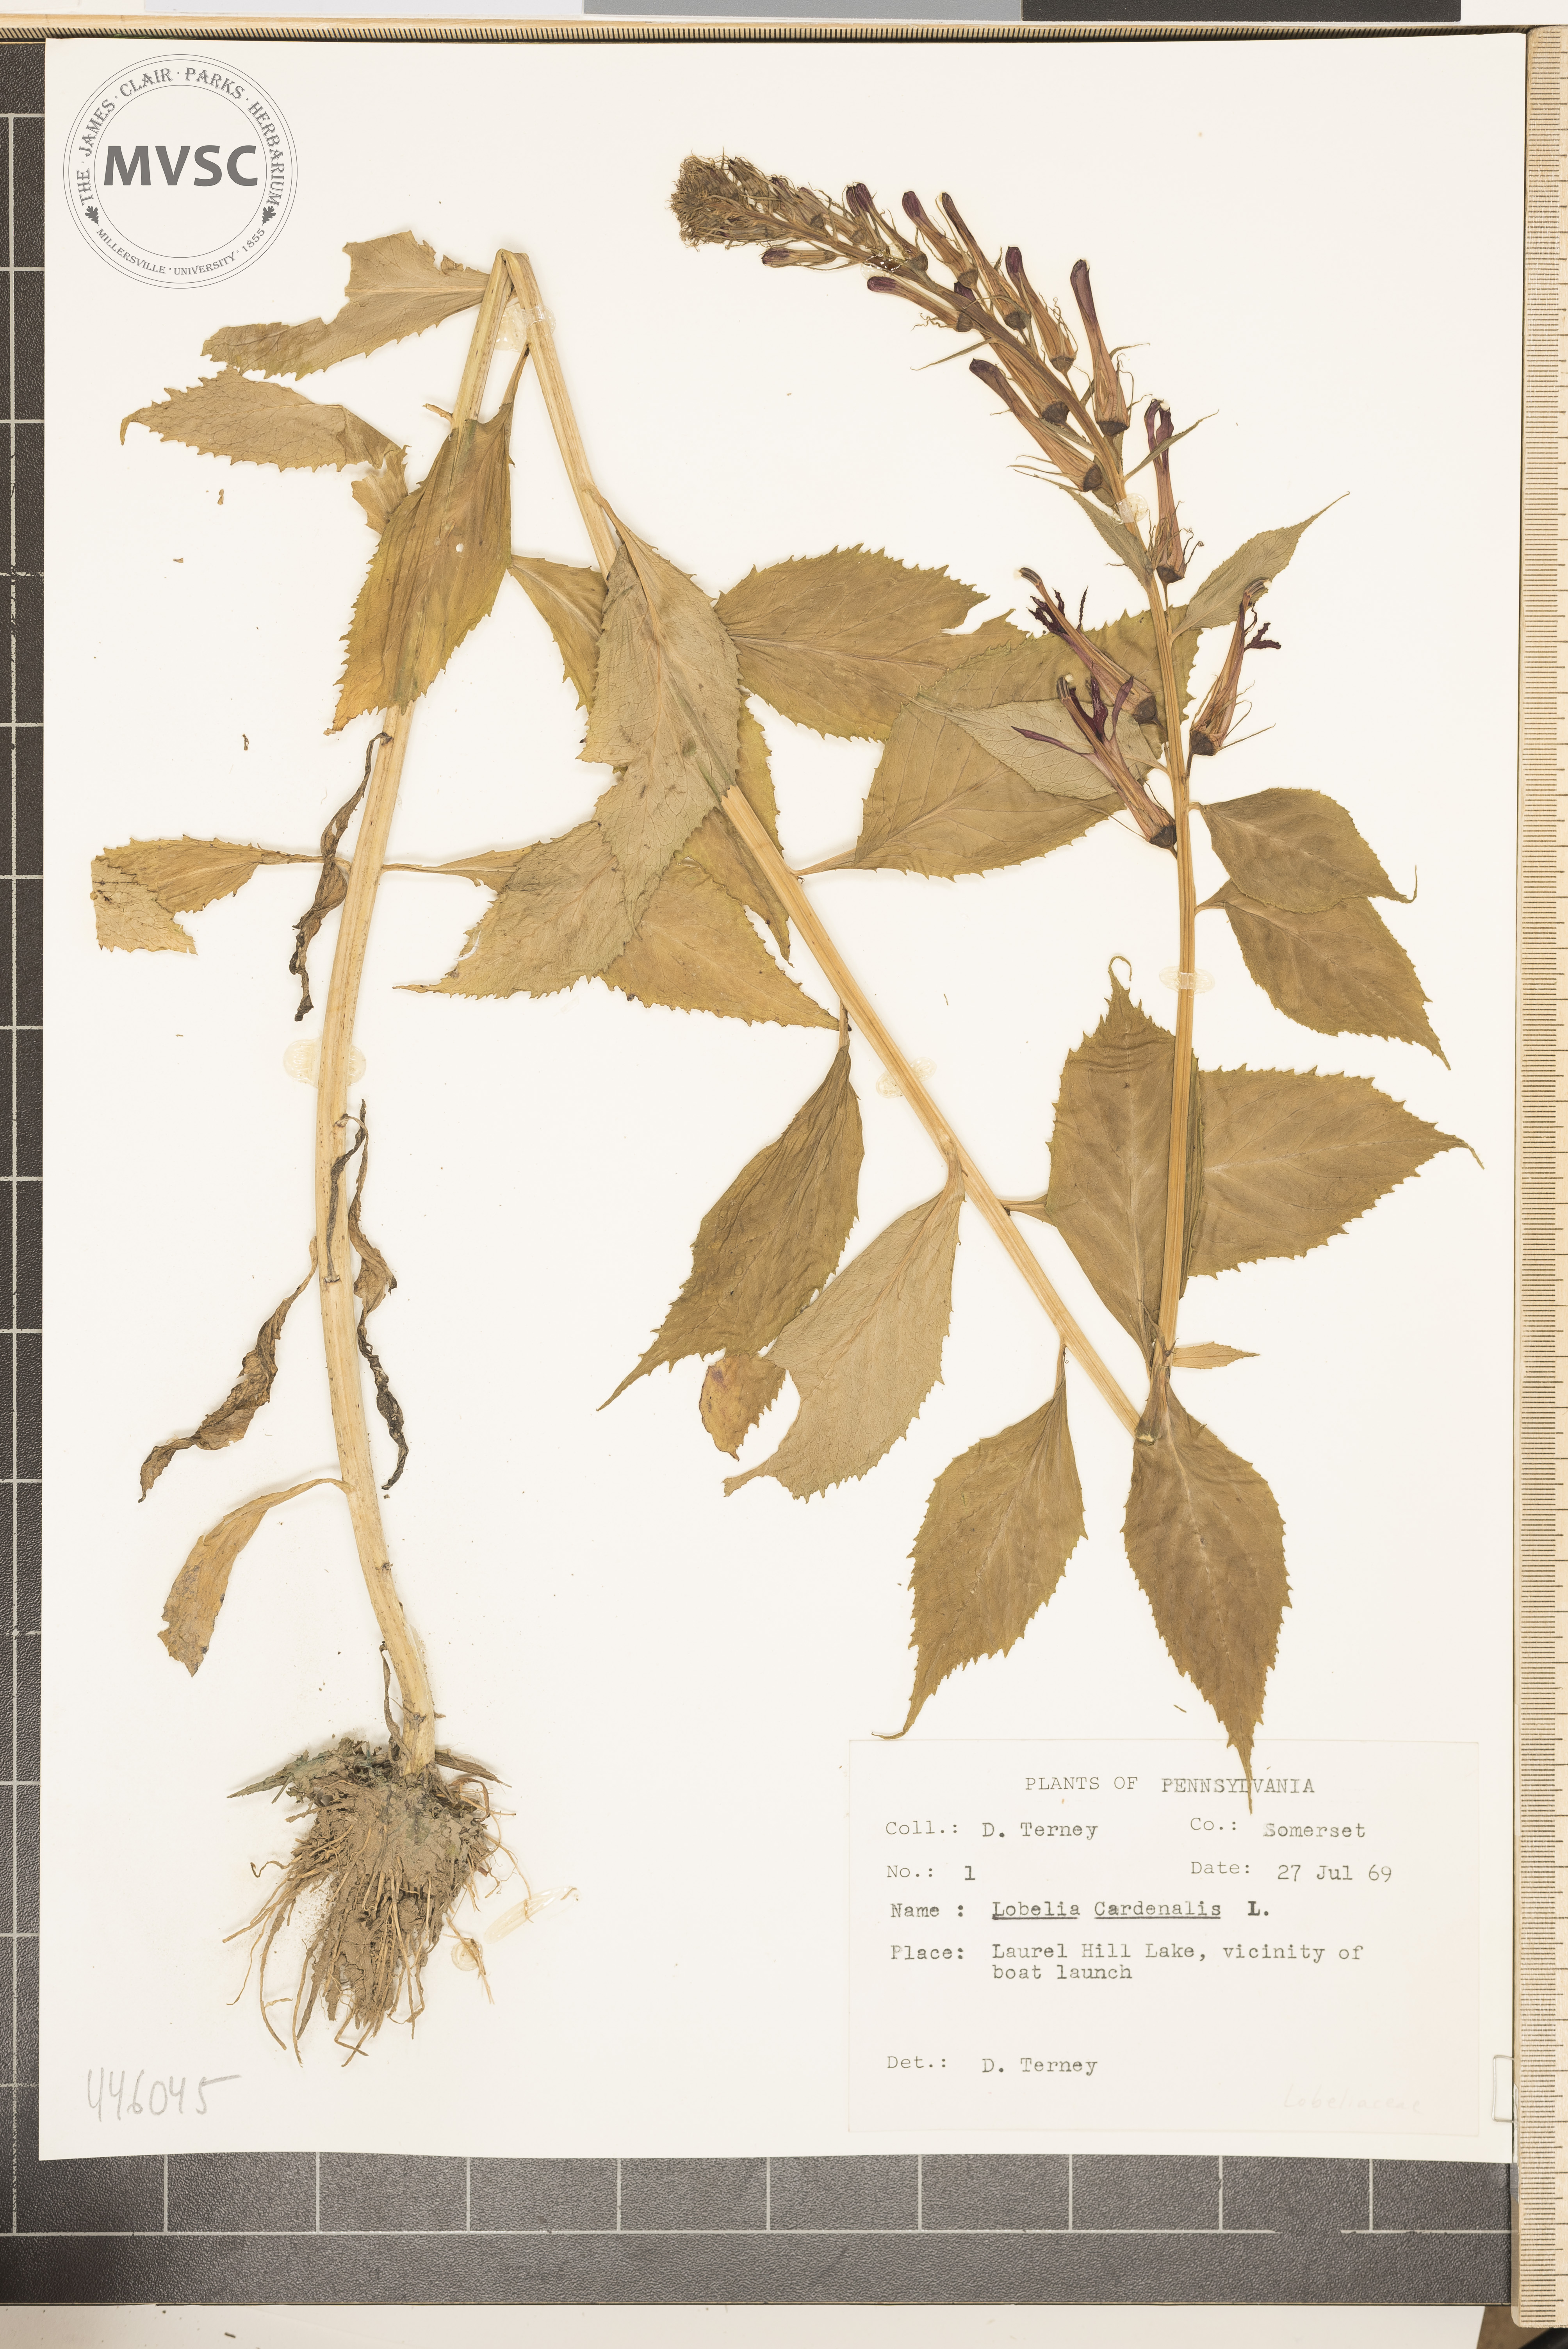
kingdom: Plantae
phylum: Tracheophyta
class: Magnoliopsida
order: Asterales
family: Campanulaceae
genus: Lobelia
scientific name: Lobelia cardinalis
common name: Cardinal flower
